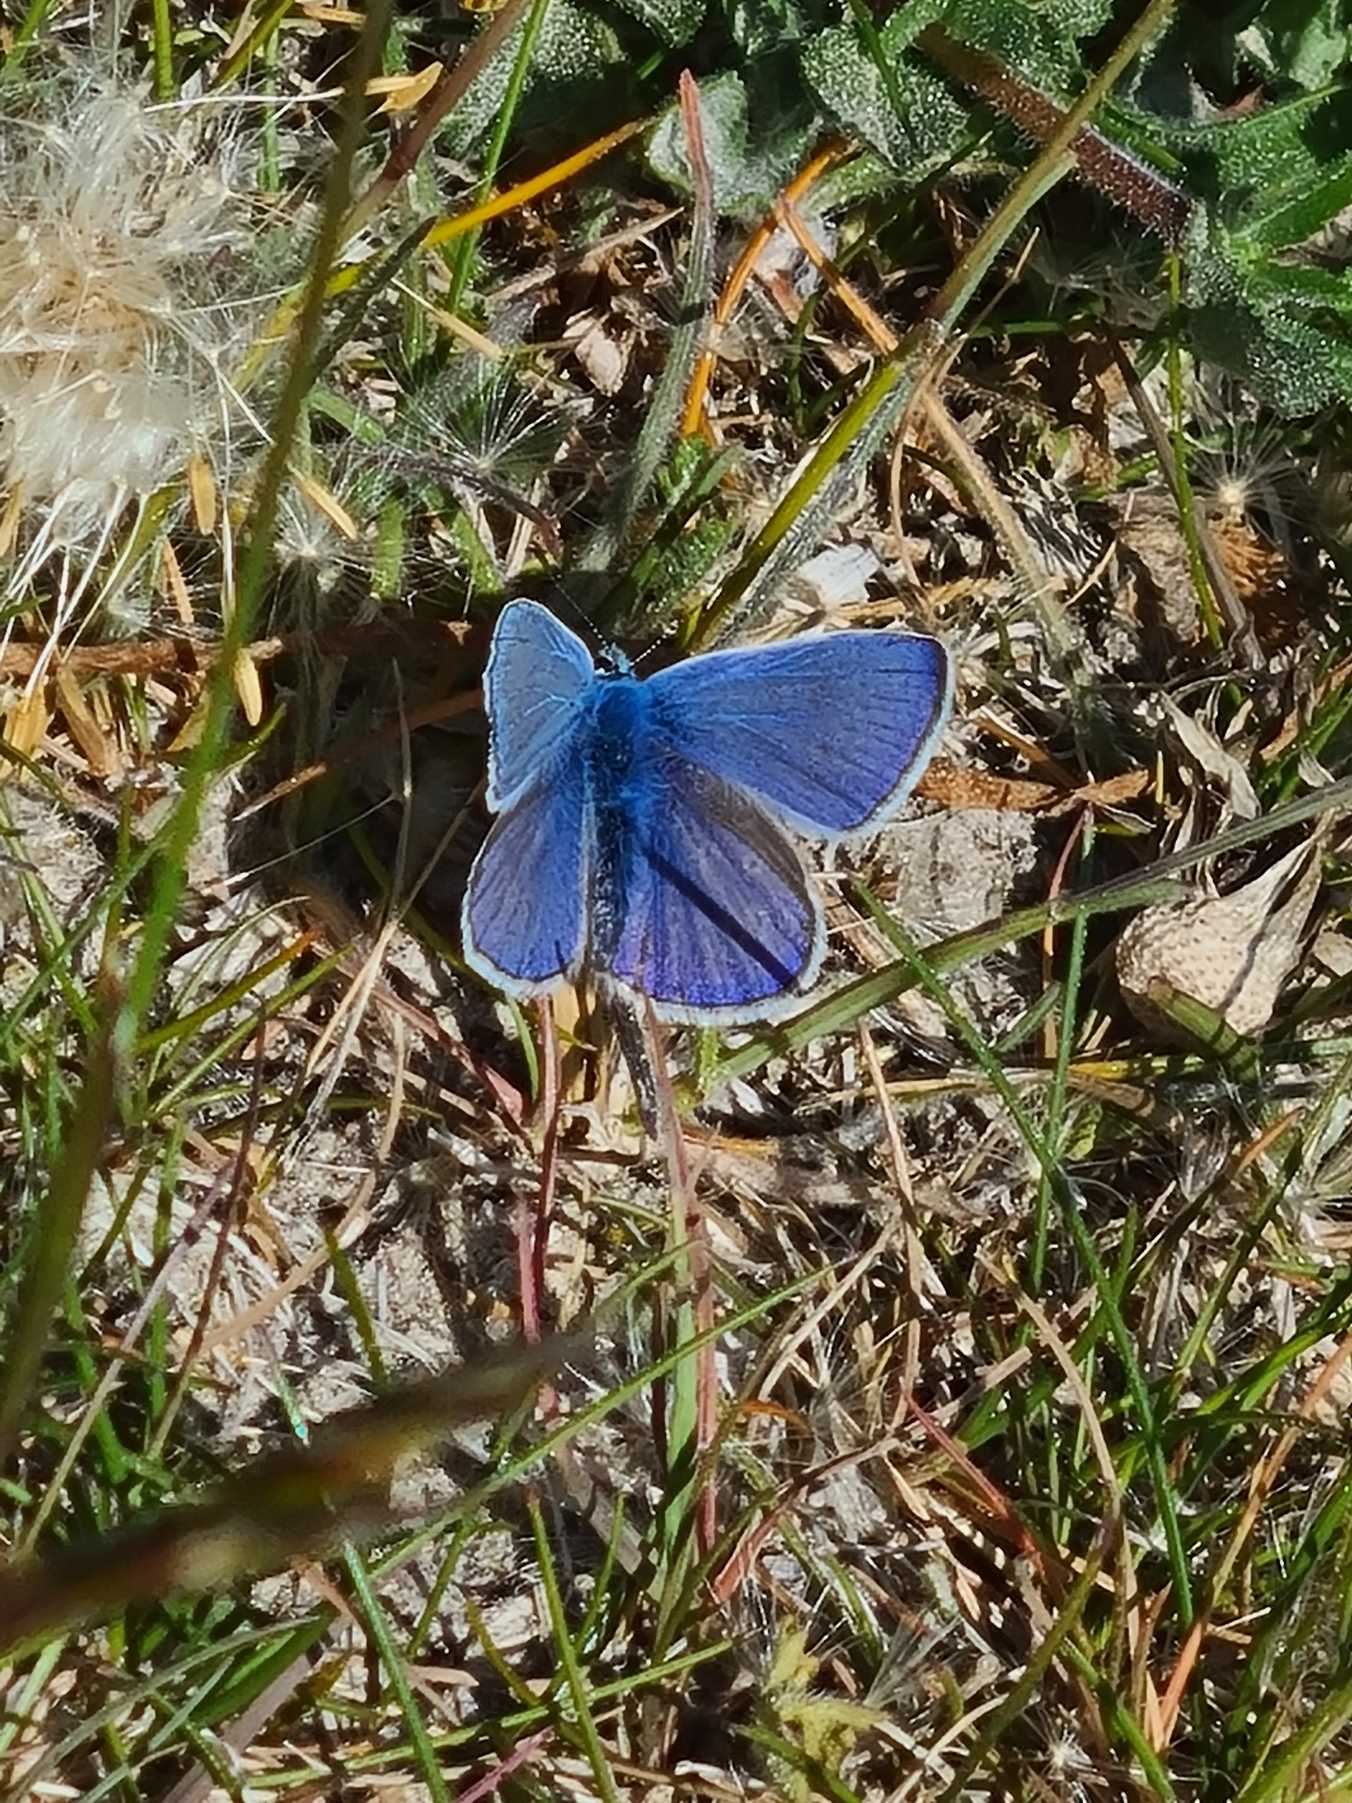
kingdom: Animalia
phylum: Arthropoda
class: Insecta
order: Lepidoptera
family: Lycaenidae
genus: Polyommatus
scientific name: Polyommatus icarus
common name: Almindelig blåfugl
